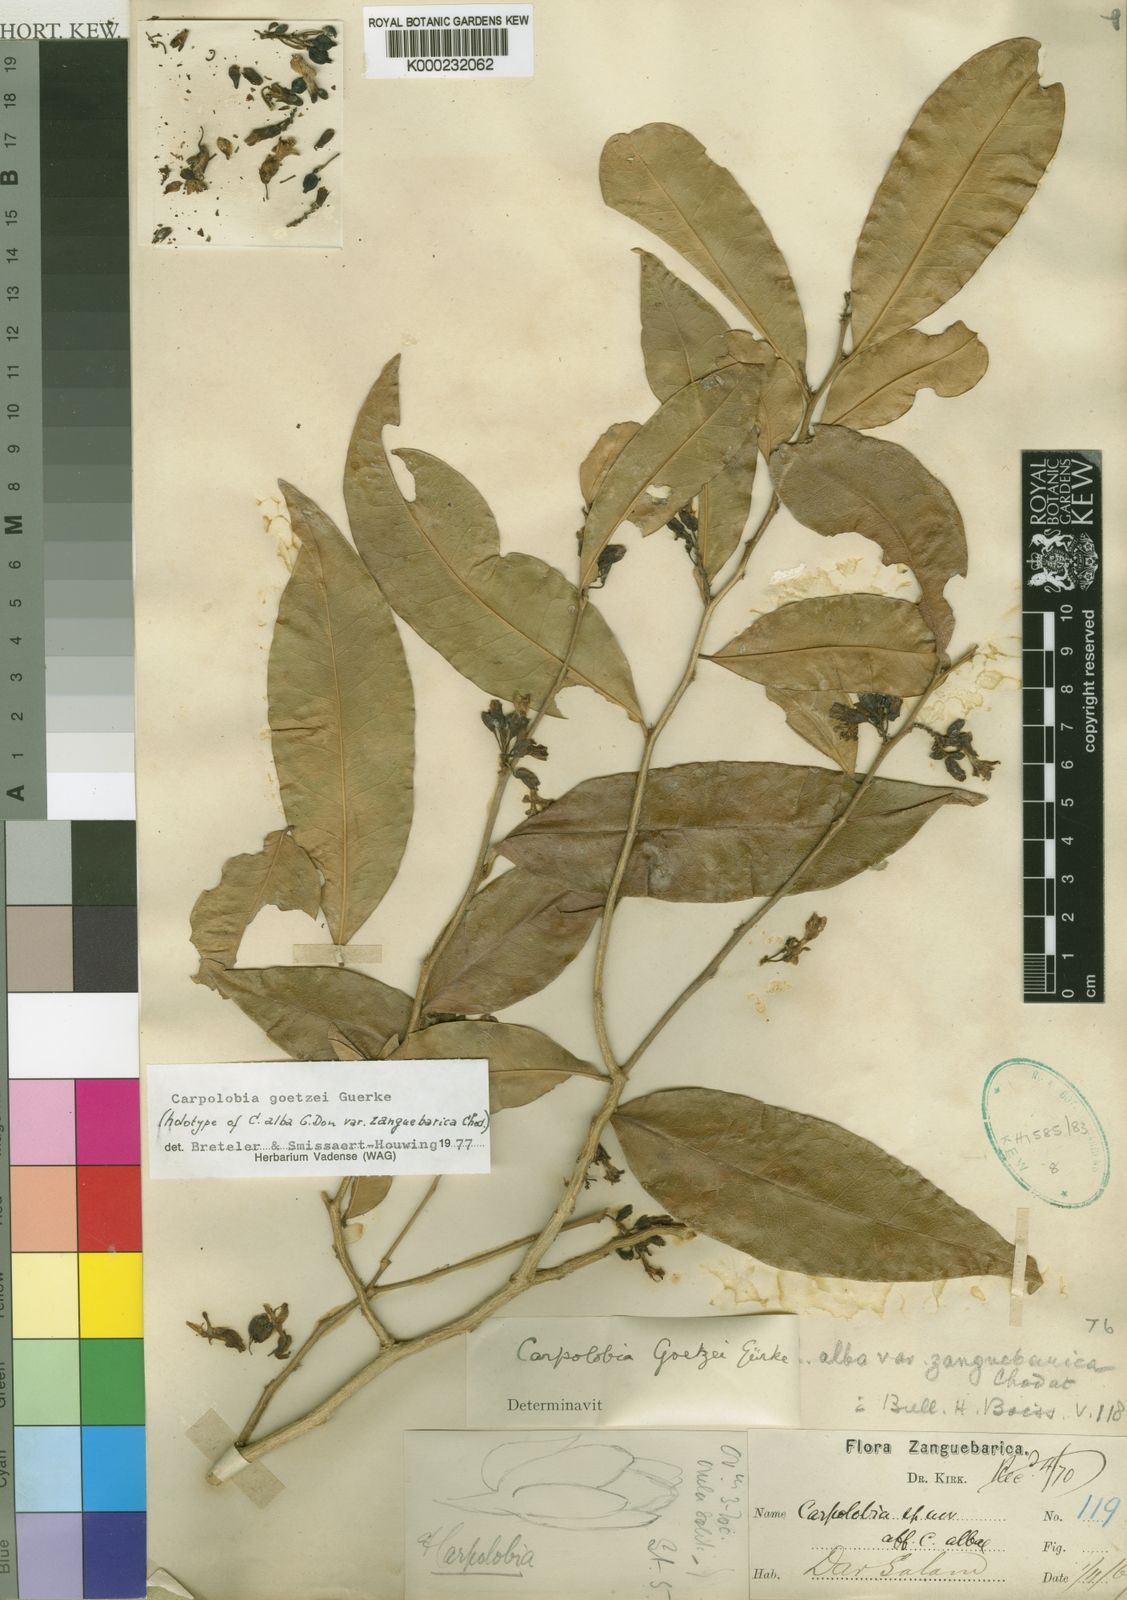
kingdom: Plantae
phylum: Tracheophyta
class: Magnoliopsida
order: Fabales
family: Polygalaceae
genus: Carpolobia
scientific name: Carpolobia
